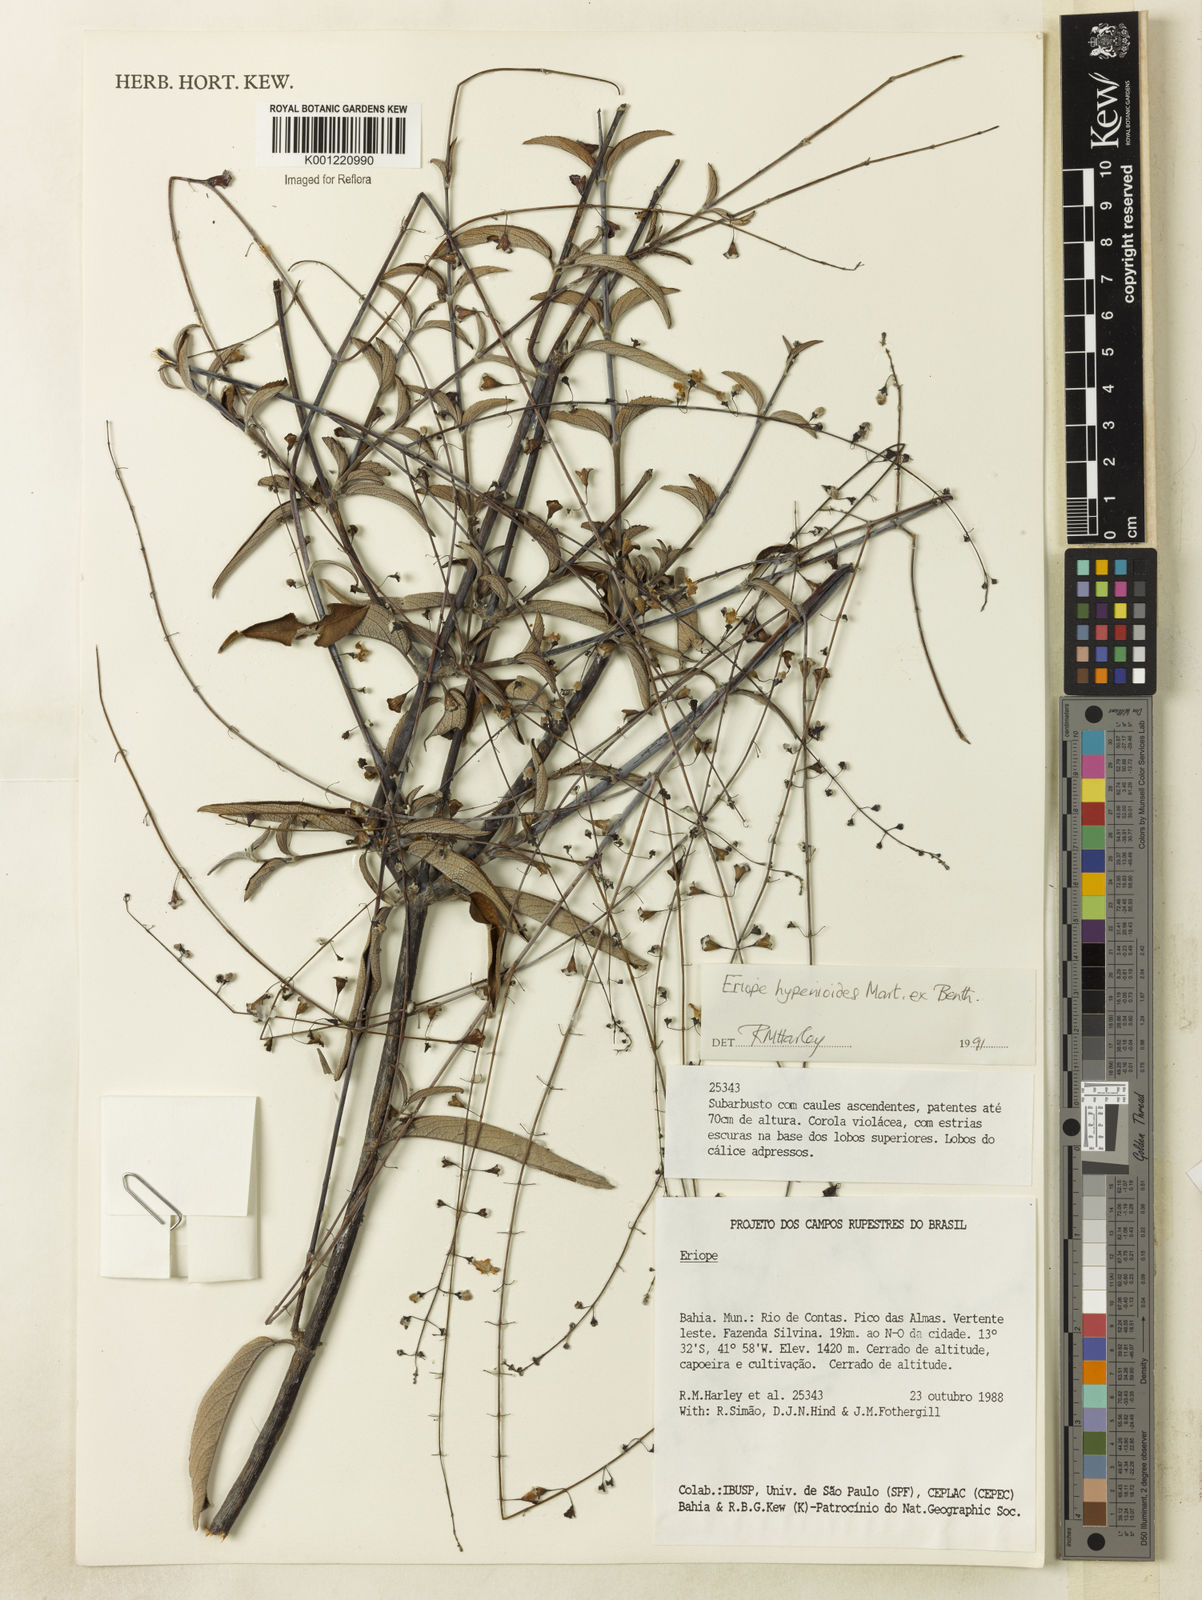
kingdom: Plantae
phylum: Tracheophyta
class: Magnoliopsida
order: Lamiales
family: Lamiaceae
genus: Eriope
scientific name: Eriope hypenioides
